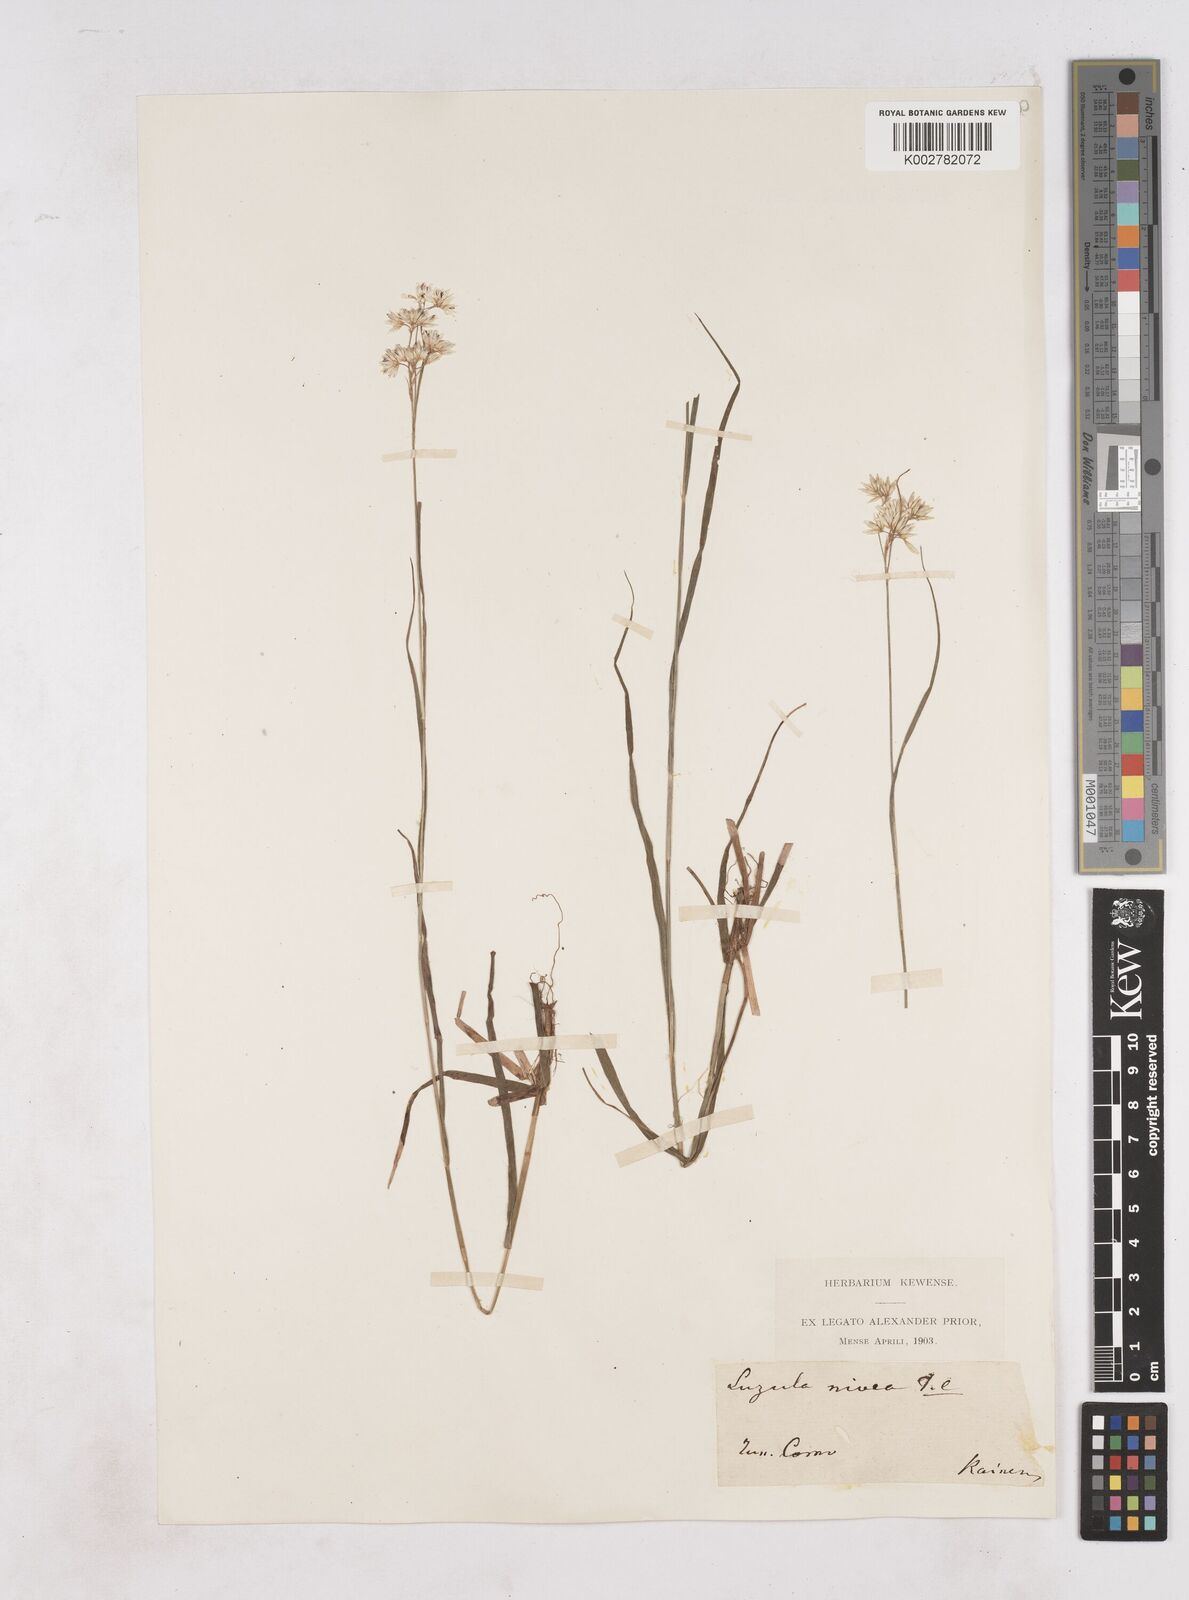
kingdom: Plantae
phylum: Tracheophyta
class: Liliopsida
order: Poales
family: Juncaceae
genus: Luzula
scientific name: Luzula nivea
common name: Snow-white wood-rush
